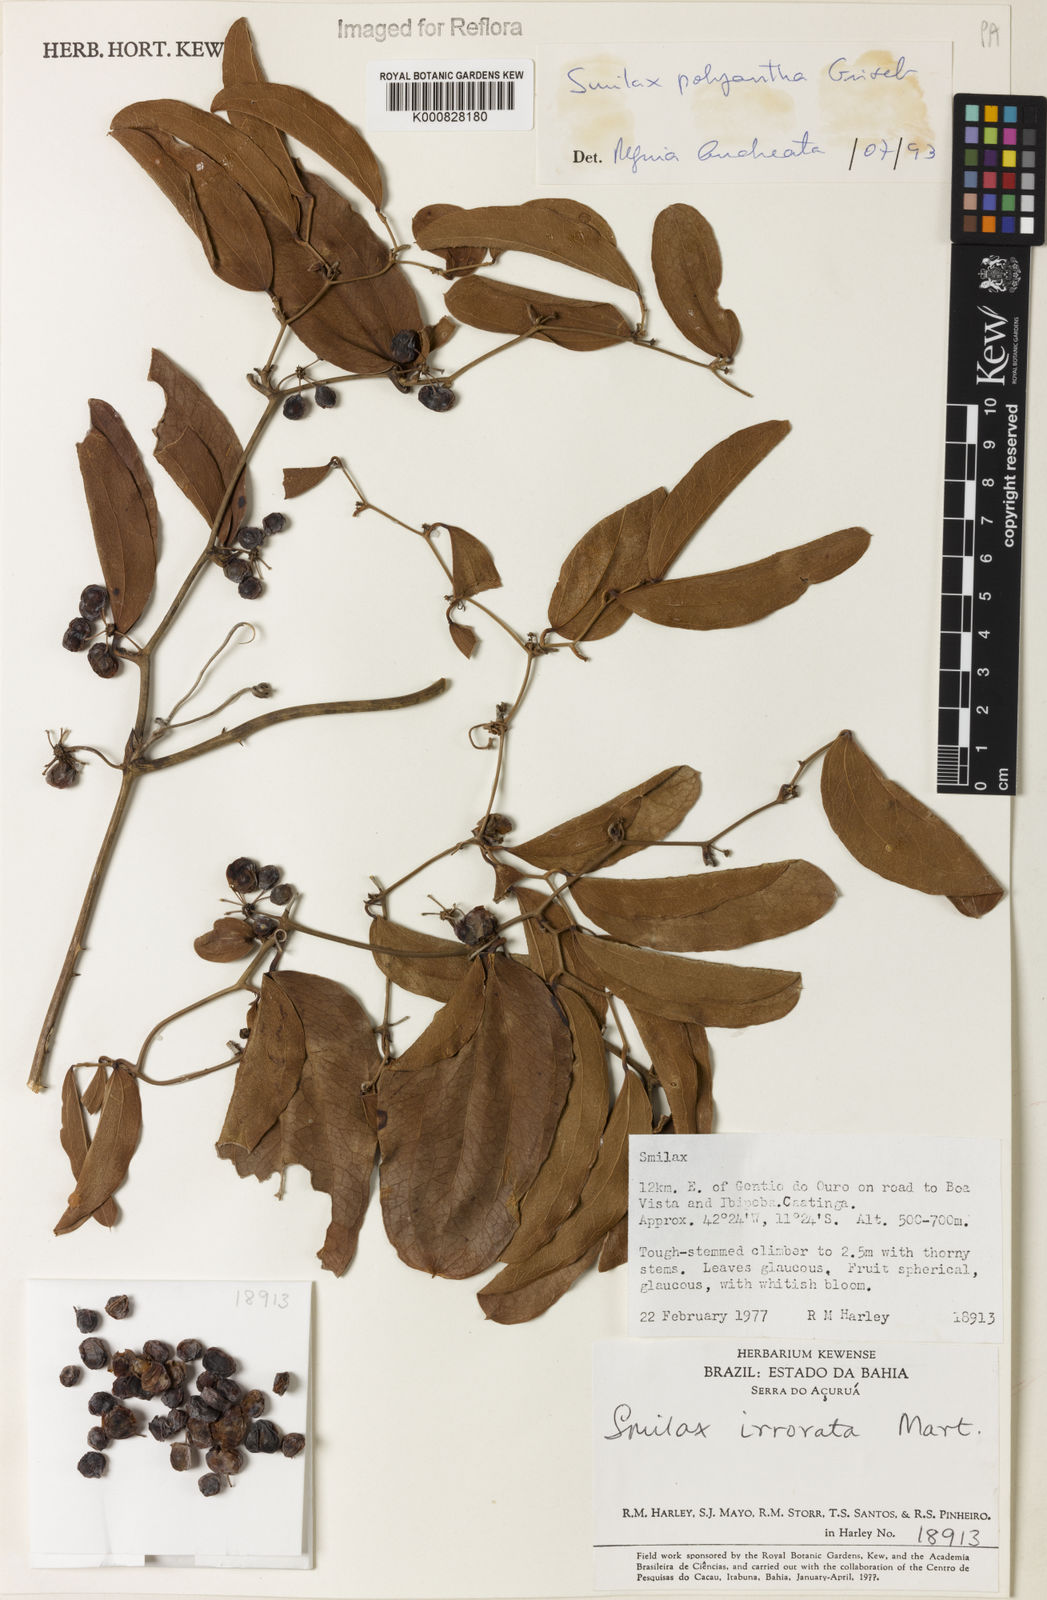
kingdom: Plantae
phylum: Tracheophyta
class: Liliopsida
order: Liliales
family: Smilacaceae
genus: Smilax
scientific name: Smilax polyantha
